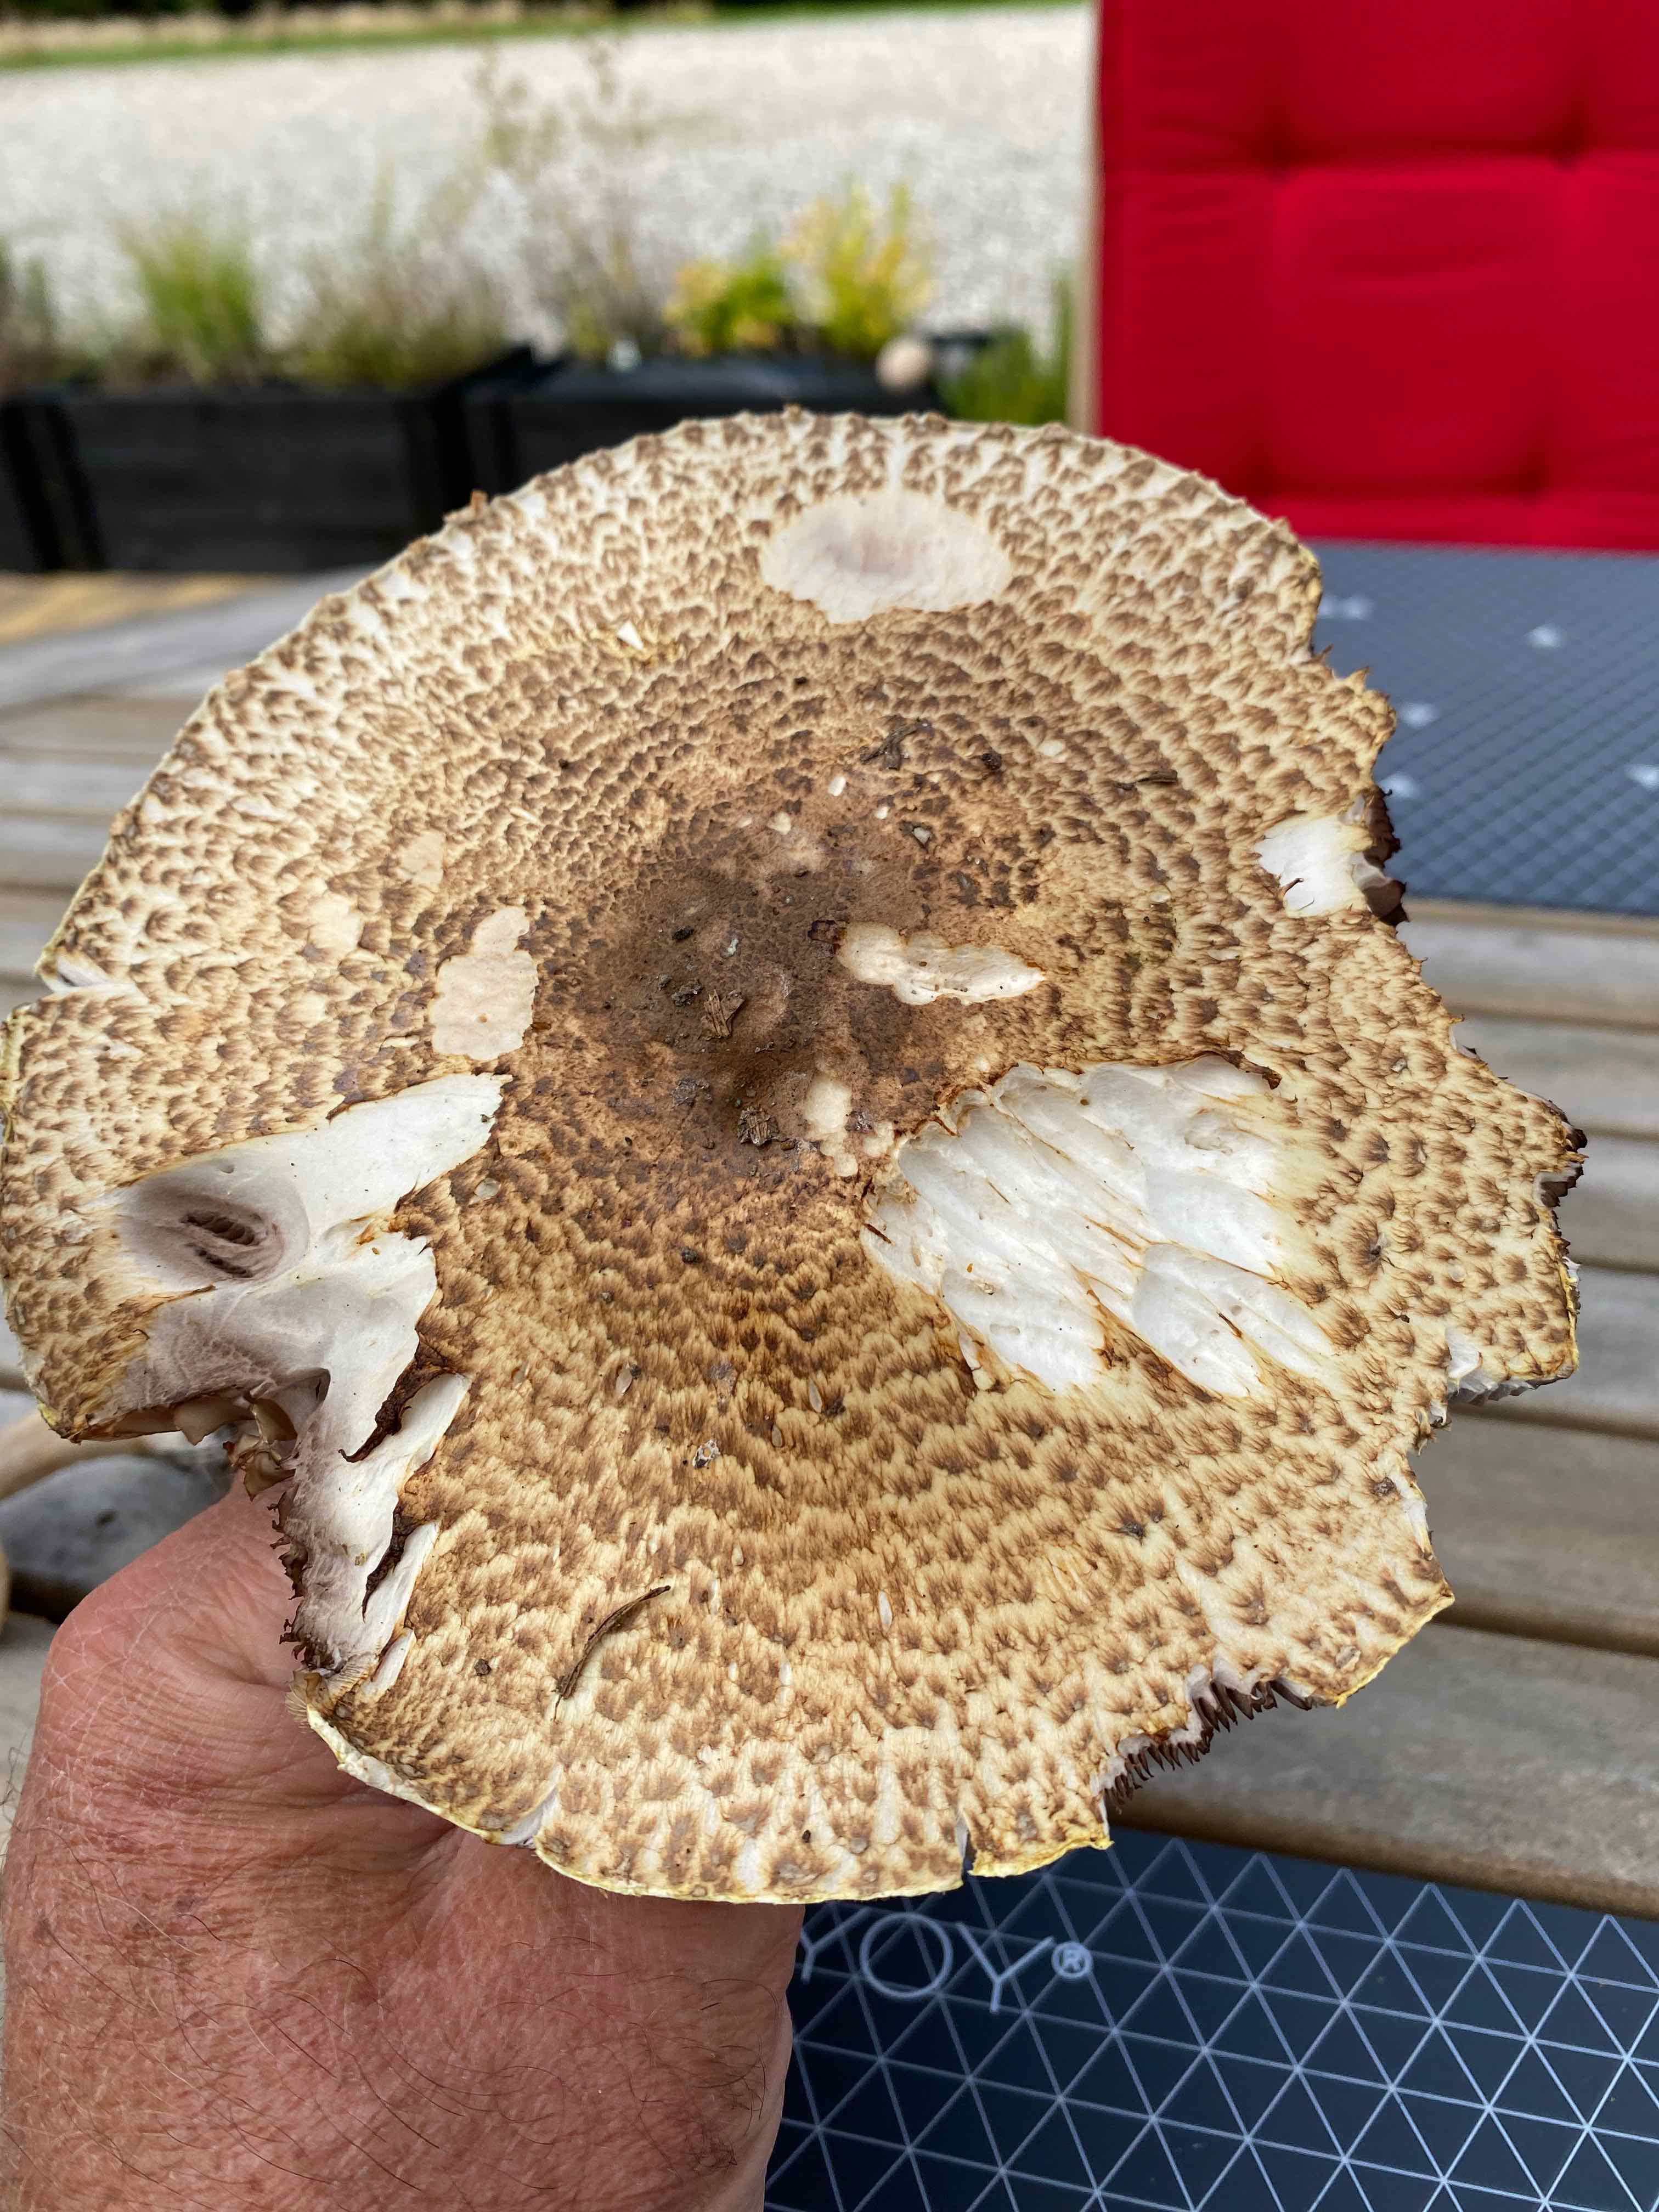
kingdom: Fungi
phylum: Basidiomycota
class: Agaricomycetes
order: Agaricales
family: Agaricaceae
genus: Agaricus
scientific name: Agaricus augustus
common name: prægtig champignon
